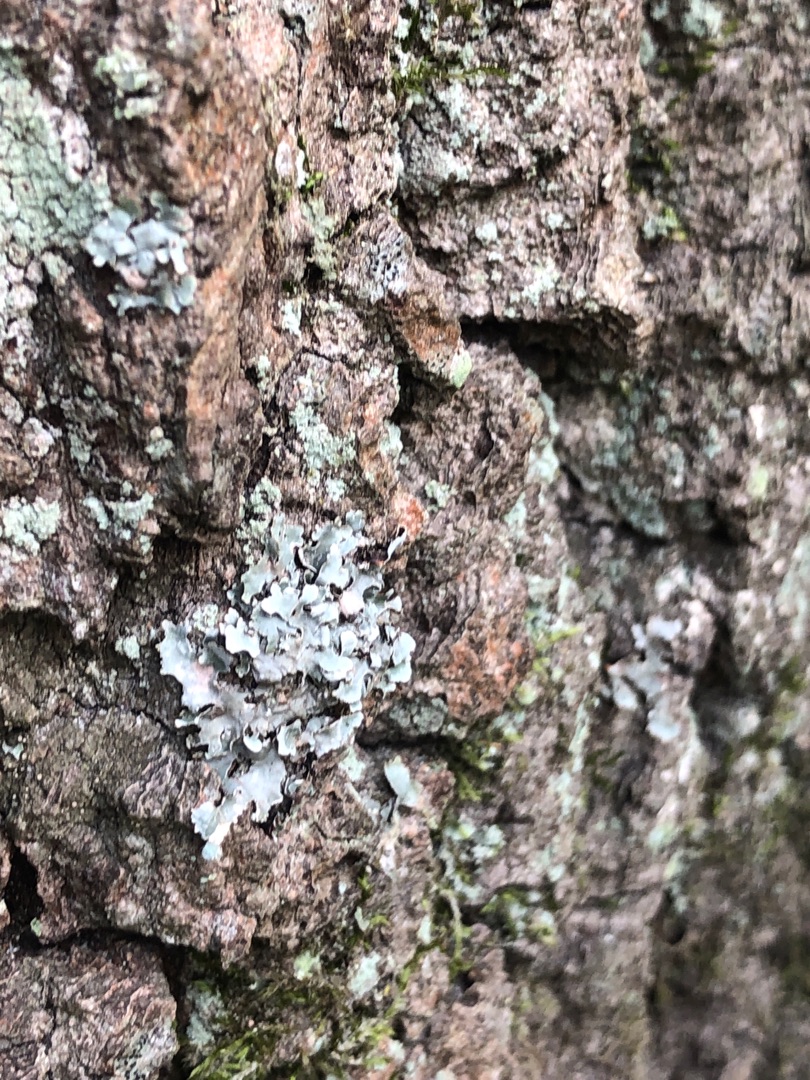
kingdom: Fungi
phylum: Ascomycota
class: Lecanoromycetes
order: Lecanorales
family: Parmeliaceae
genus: Parmelia
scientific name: Parmelia sulcata
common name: Rynket skållav
